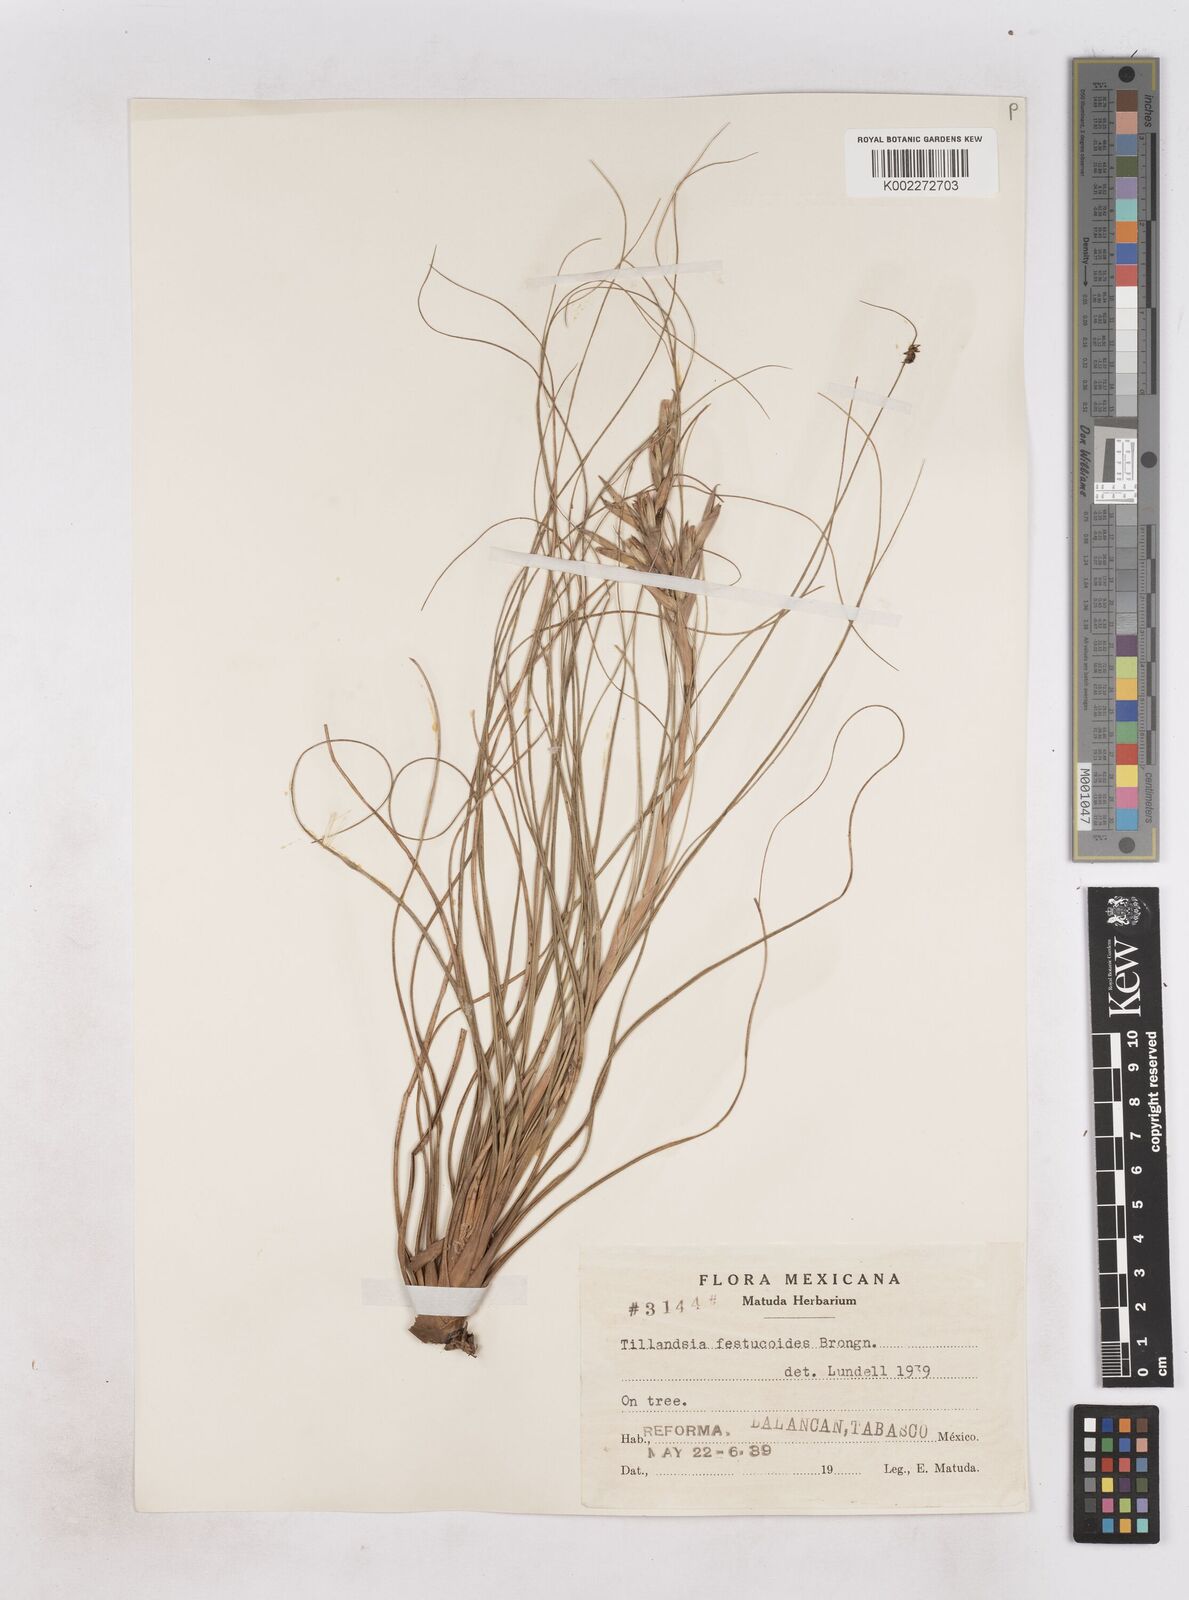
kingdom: Plantae
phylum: Tracheophyta
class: Liliopsida
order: Poales
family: Bromeliaceae
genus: Tillandsia
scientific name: Tillandsia festucoides
